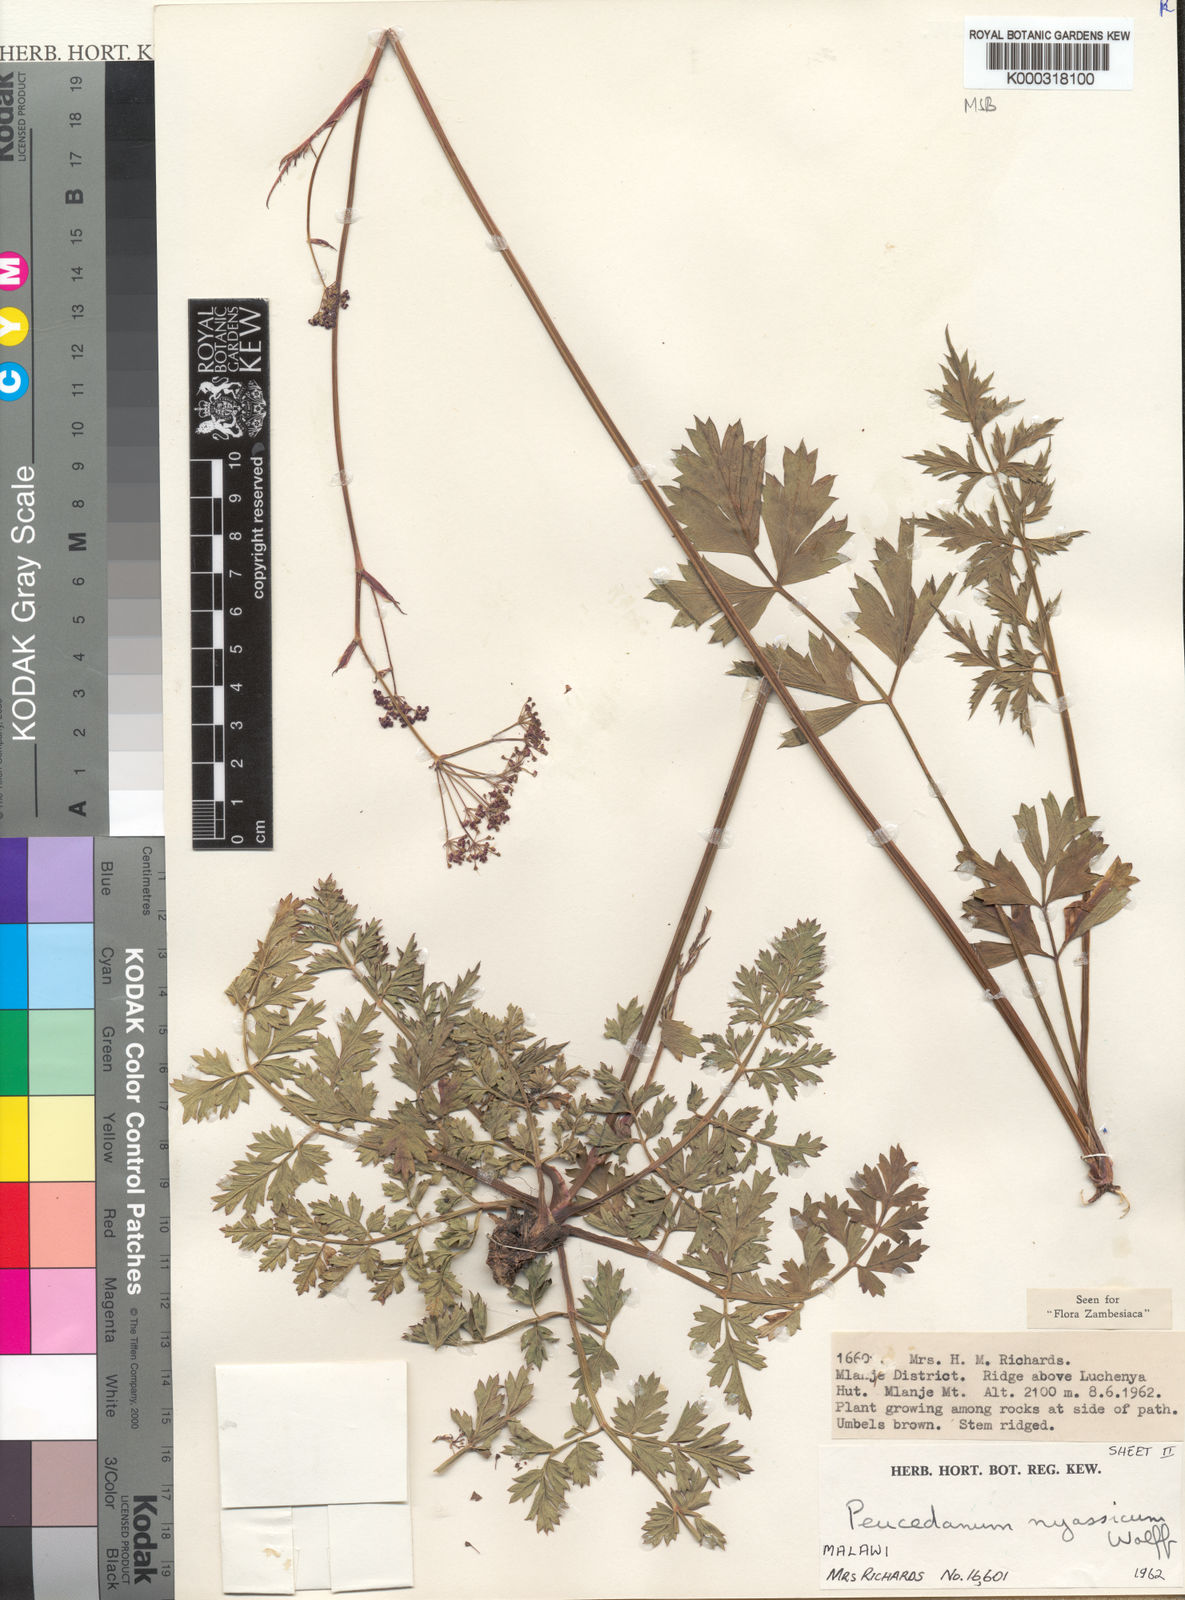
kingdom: Plantae
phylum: Tracheophyta
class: Magnoliopsida
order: Apiales
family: Apiaceae
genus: Afrosciadium
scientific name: Afrosciadium nyassicum
